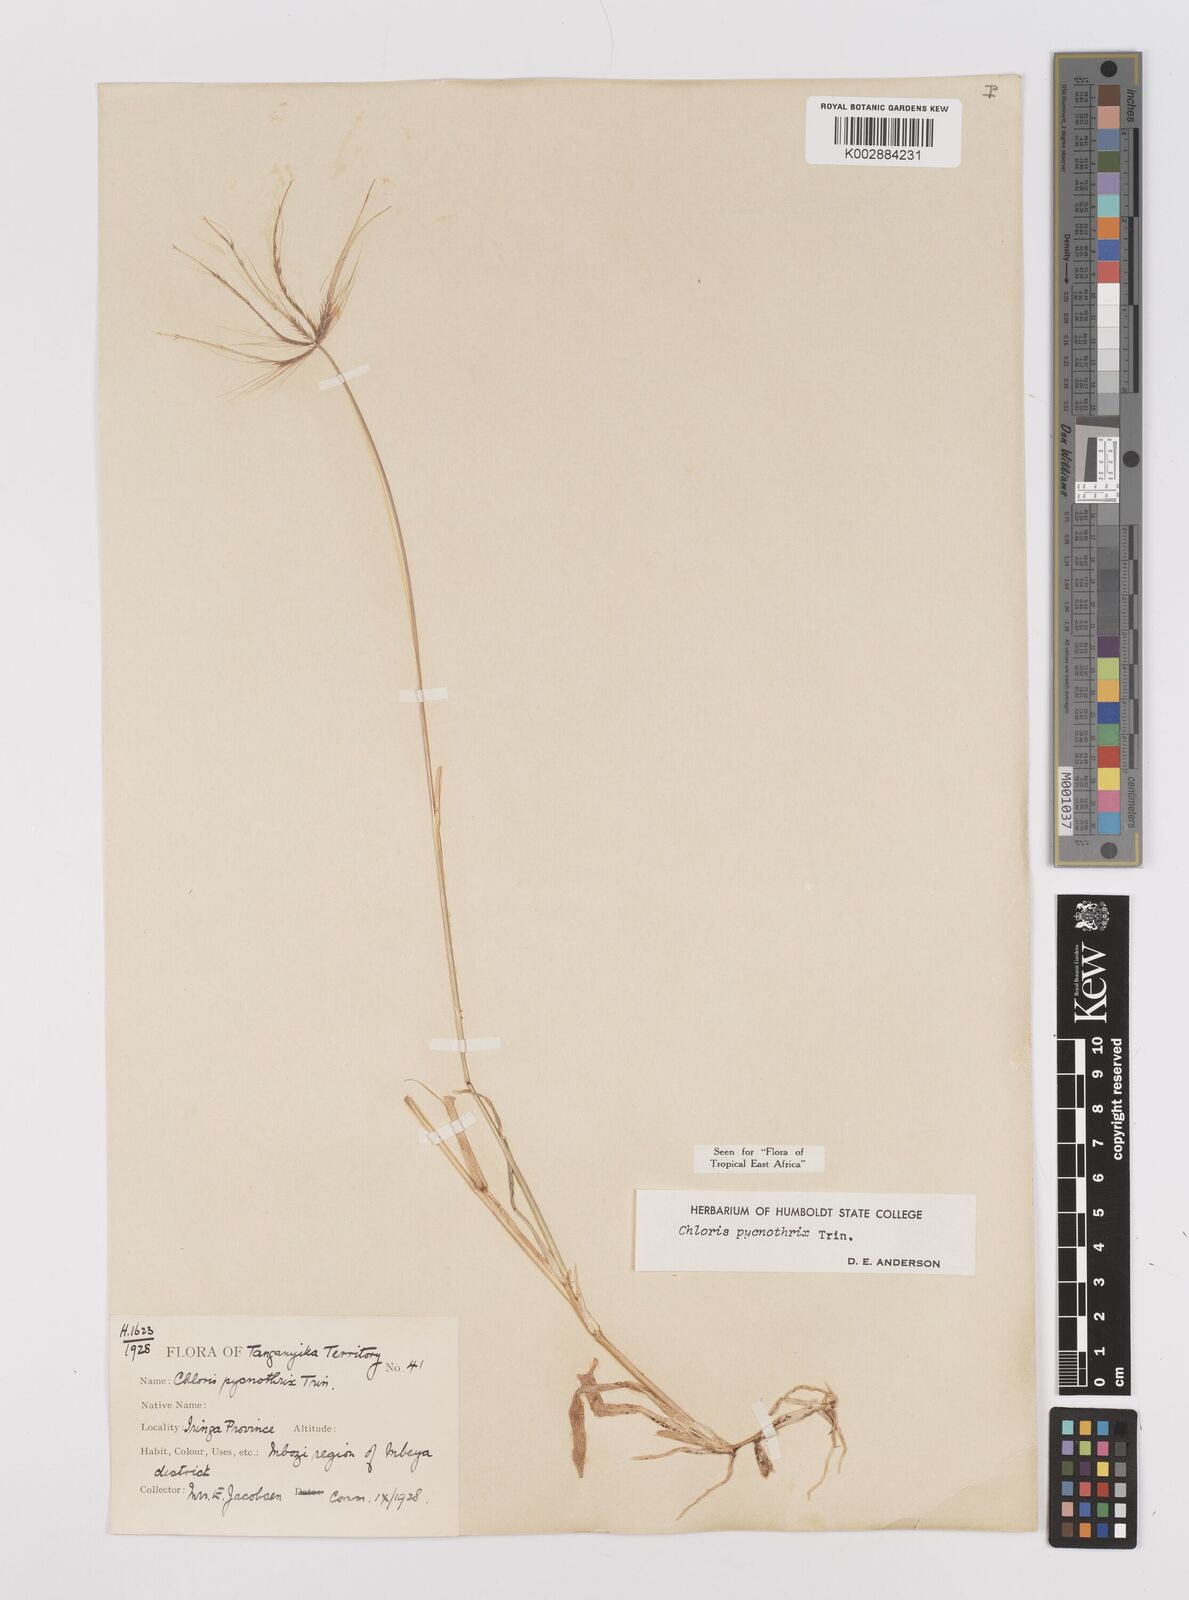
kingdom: Plantae
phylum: Tracheophyta
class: Liliopsida
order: Poales
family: Poaceae
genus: Chloris
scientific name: Chloris pycnothrix
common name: Spiderweb chloris
